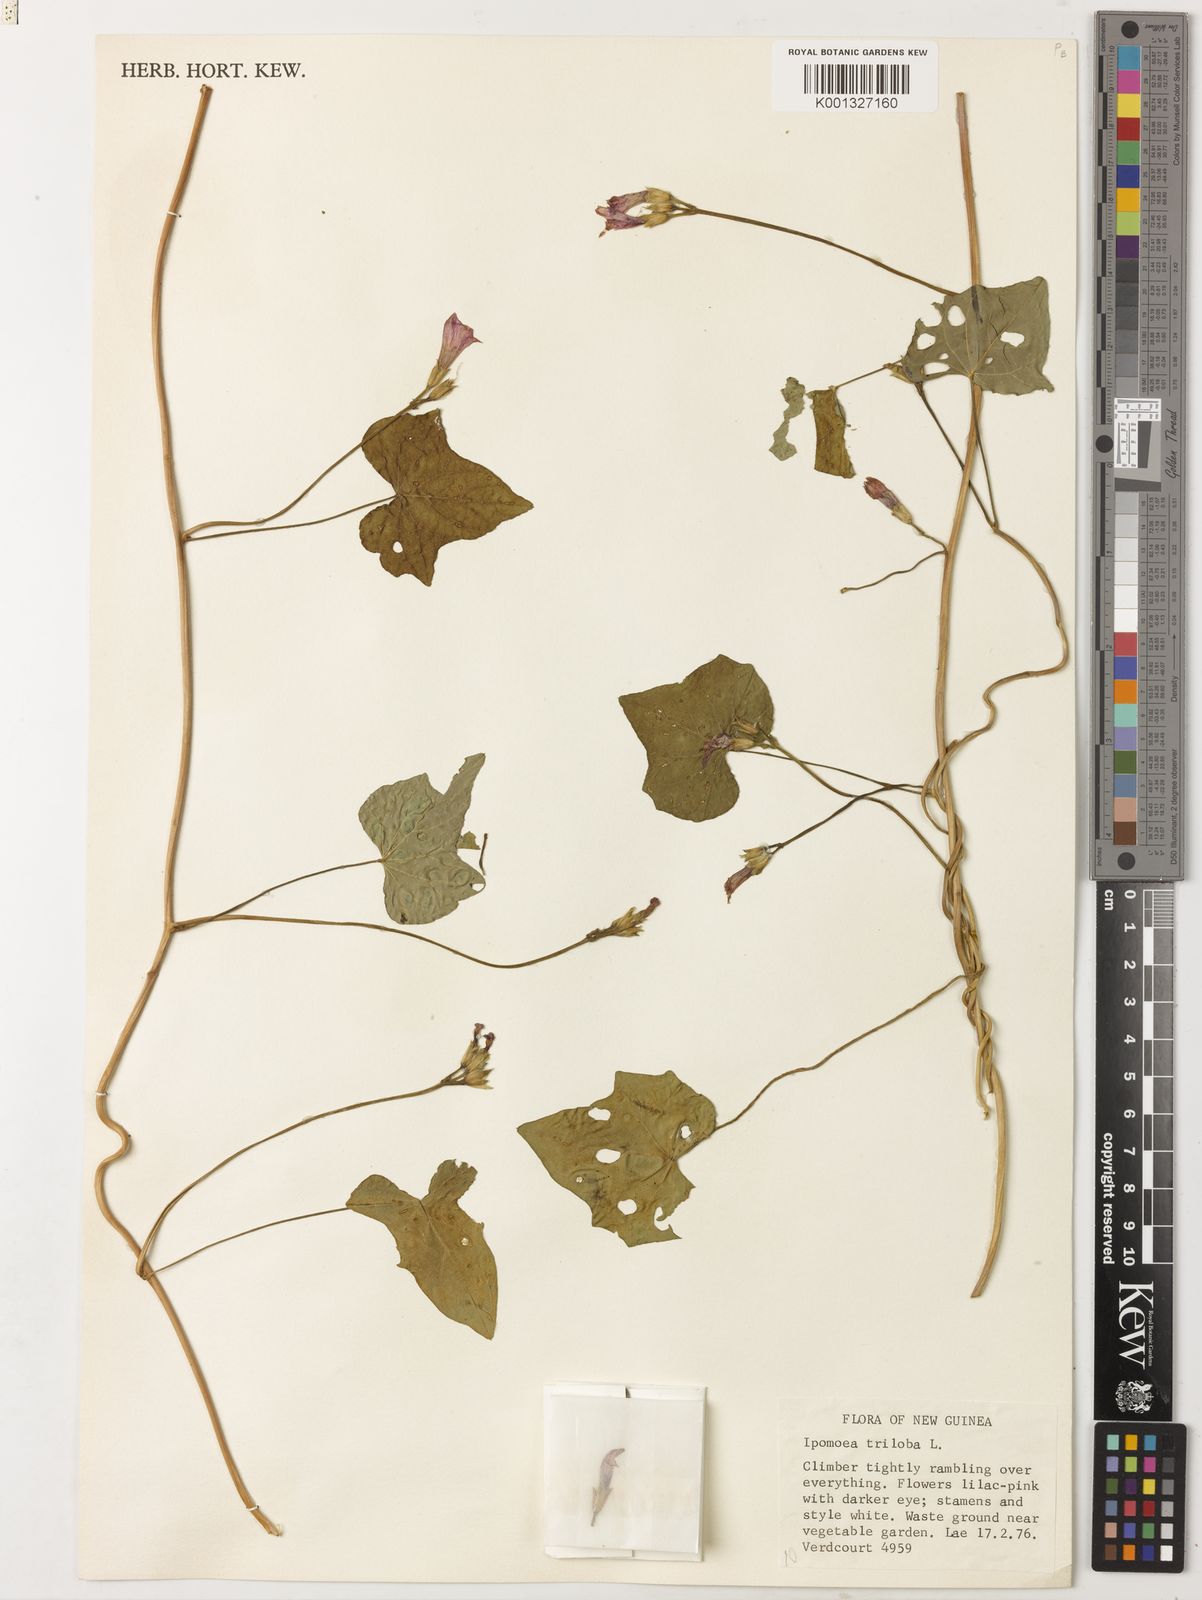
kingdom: Plantae
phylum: Tracheophyta
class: Magnoliopsida
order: Solanales
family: Convolvulaceae
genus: Ipomoea
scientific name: Ipomoea triloba
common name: Little-bell
